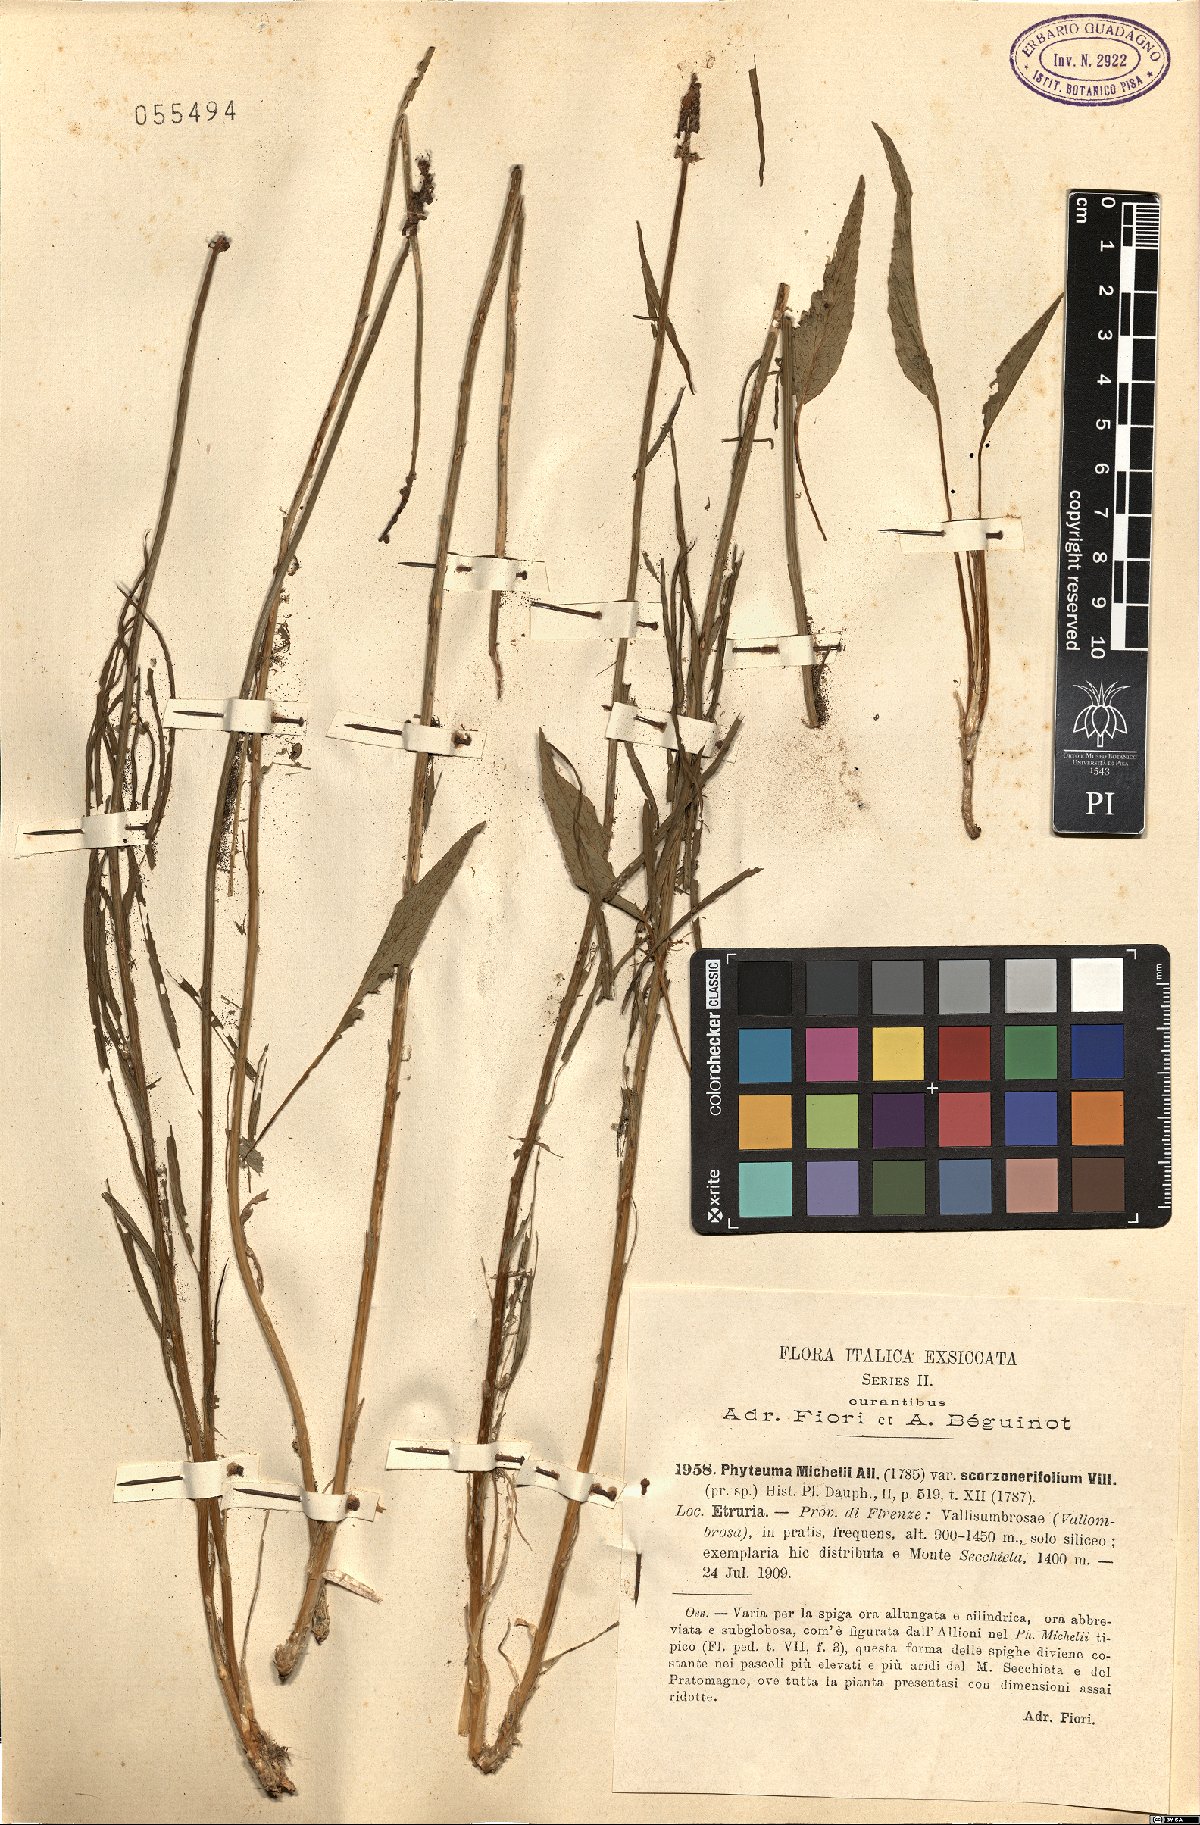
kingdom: Plantae
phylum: Tracheophyta
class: Magnoliopsida
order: Asterales
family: Campanulaceae
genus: Phyteuma
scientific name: Phyteuma scorzonerifolium
